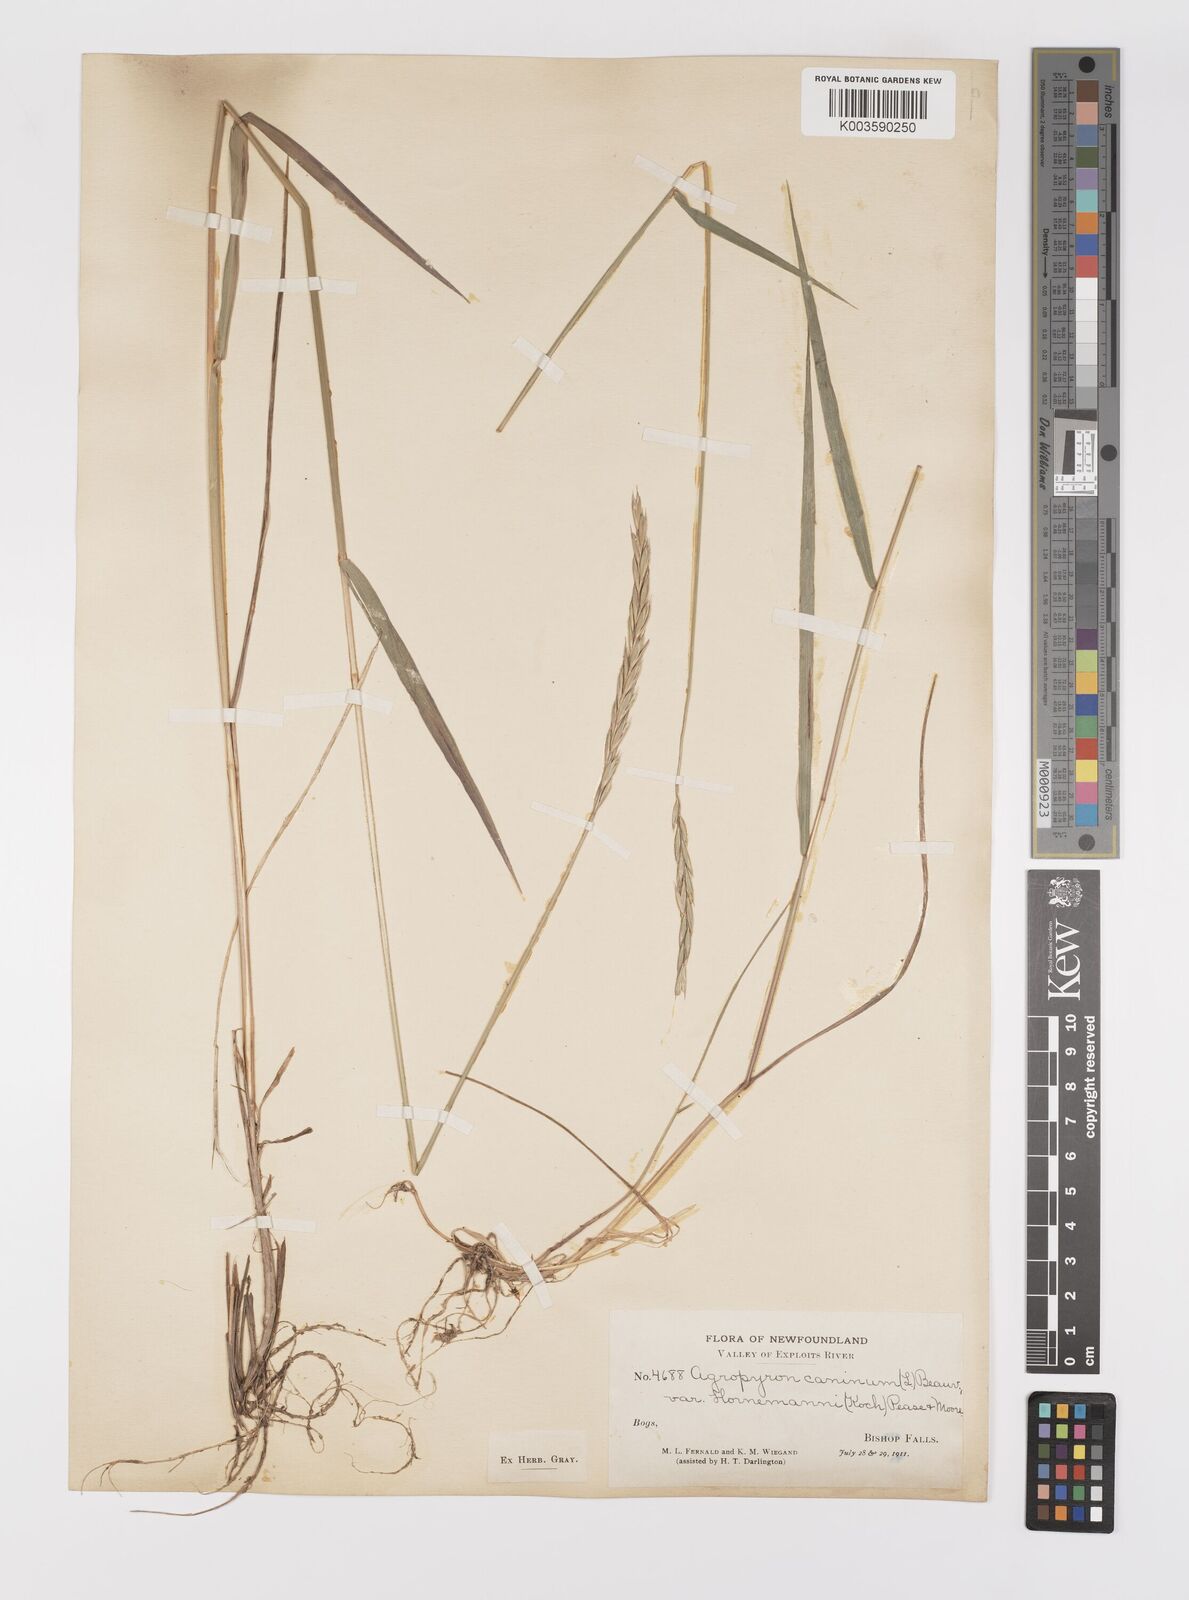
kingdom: Plantae
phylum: Tracheophyta
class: Liliopsida
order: Poales
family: Poaceae
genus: Elymus
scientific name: Elymus
